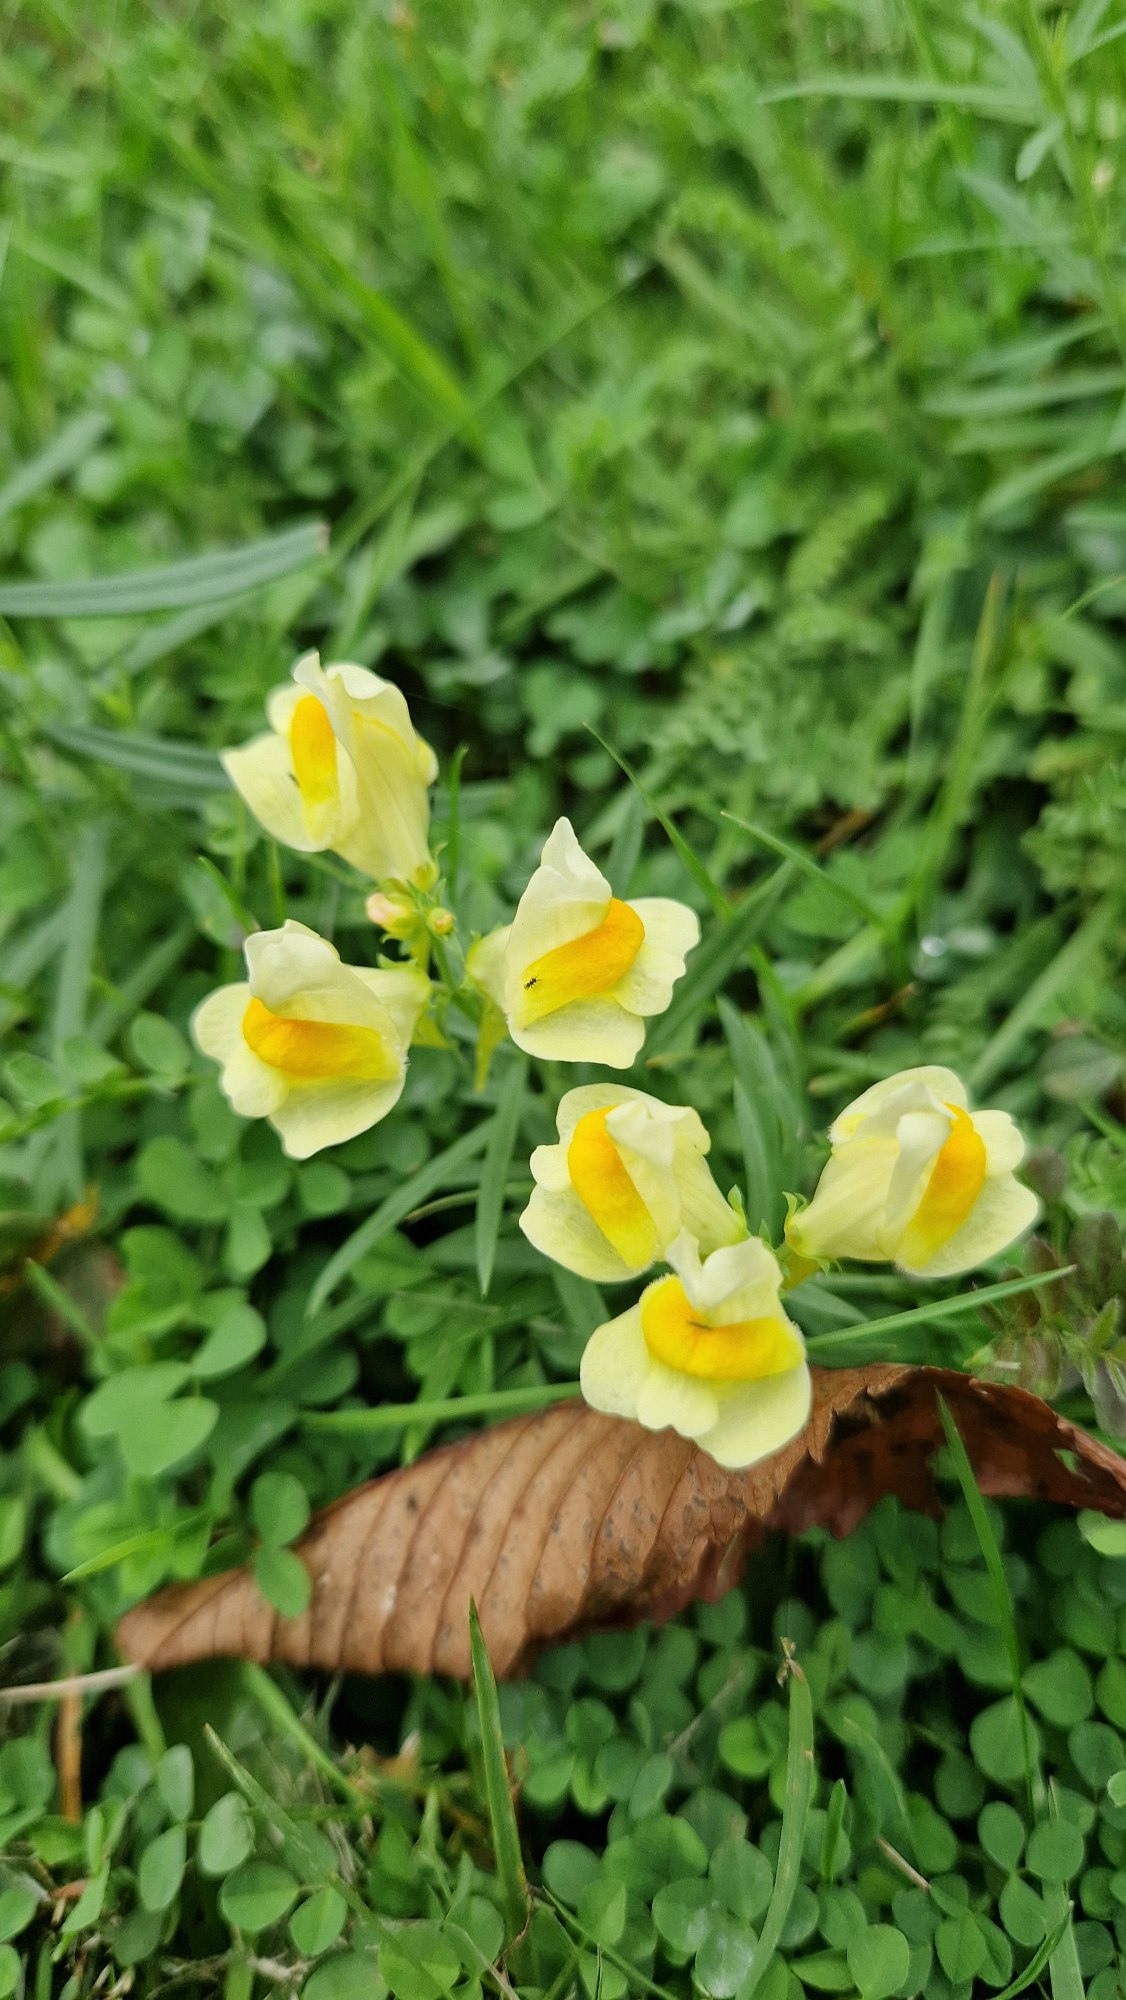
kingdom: Plantae
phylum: Tracheophyta
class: Magnoliopsida
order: Lamiales
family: Plantaginaceae
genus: Linaria
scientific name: Linaria vulgaris
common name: Almindelig torskemund
